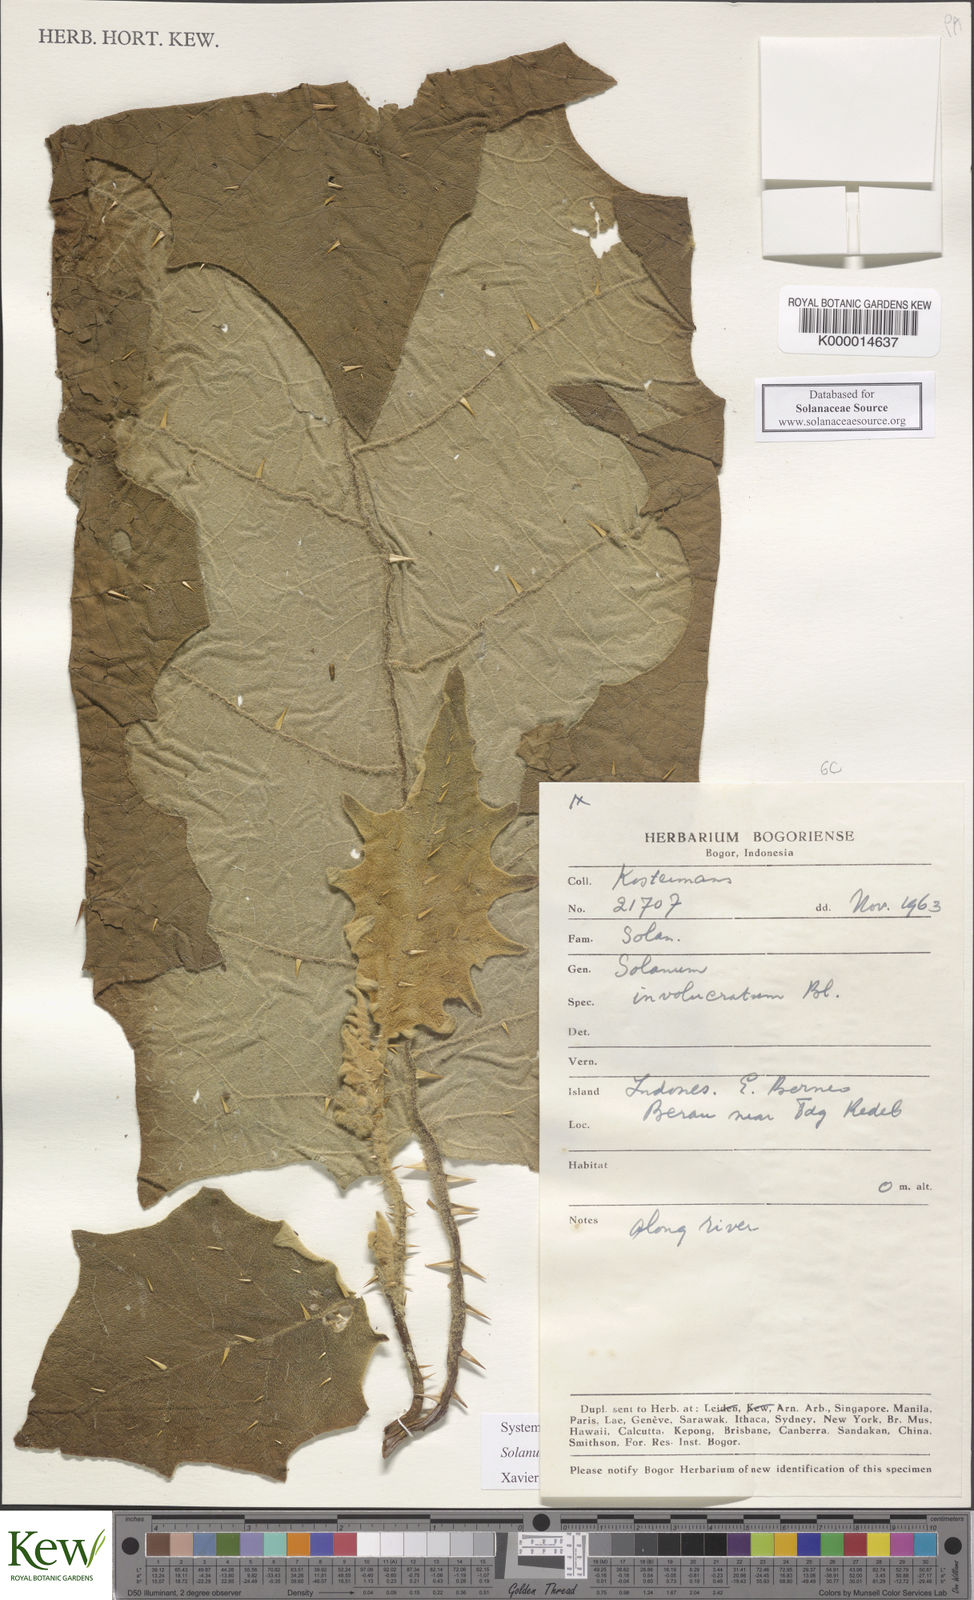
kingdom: Plantae
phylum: Tracheophyta
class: Magnoliopsida
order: Solanales
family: Solanaceae
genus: Solanum
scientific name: Solanum lasiocarpum
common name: Indian nightshade
